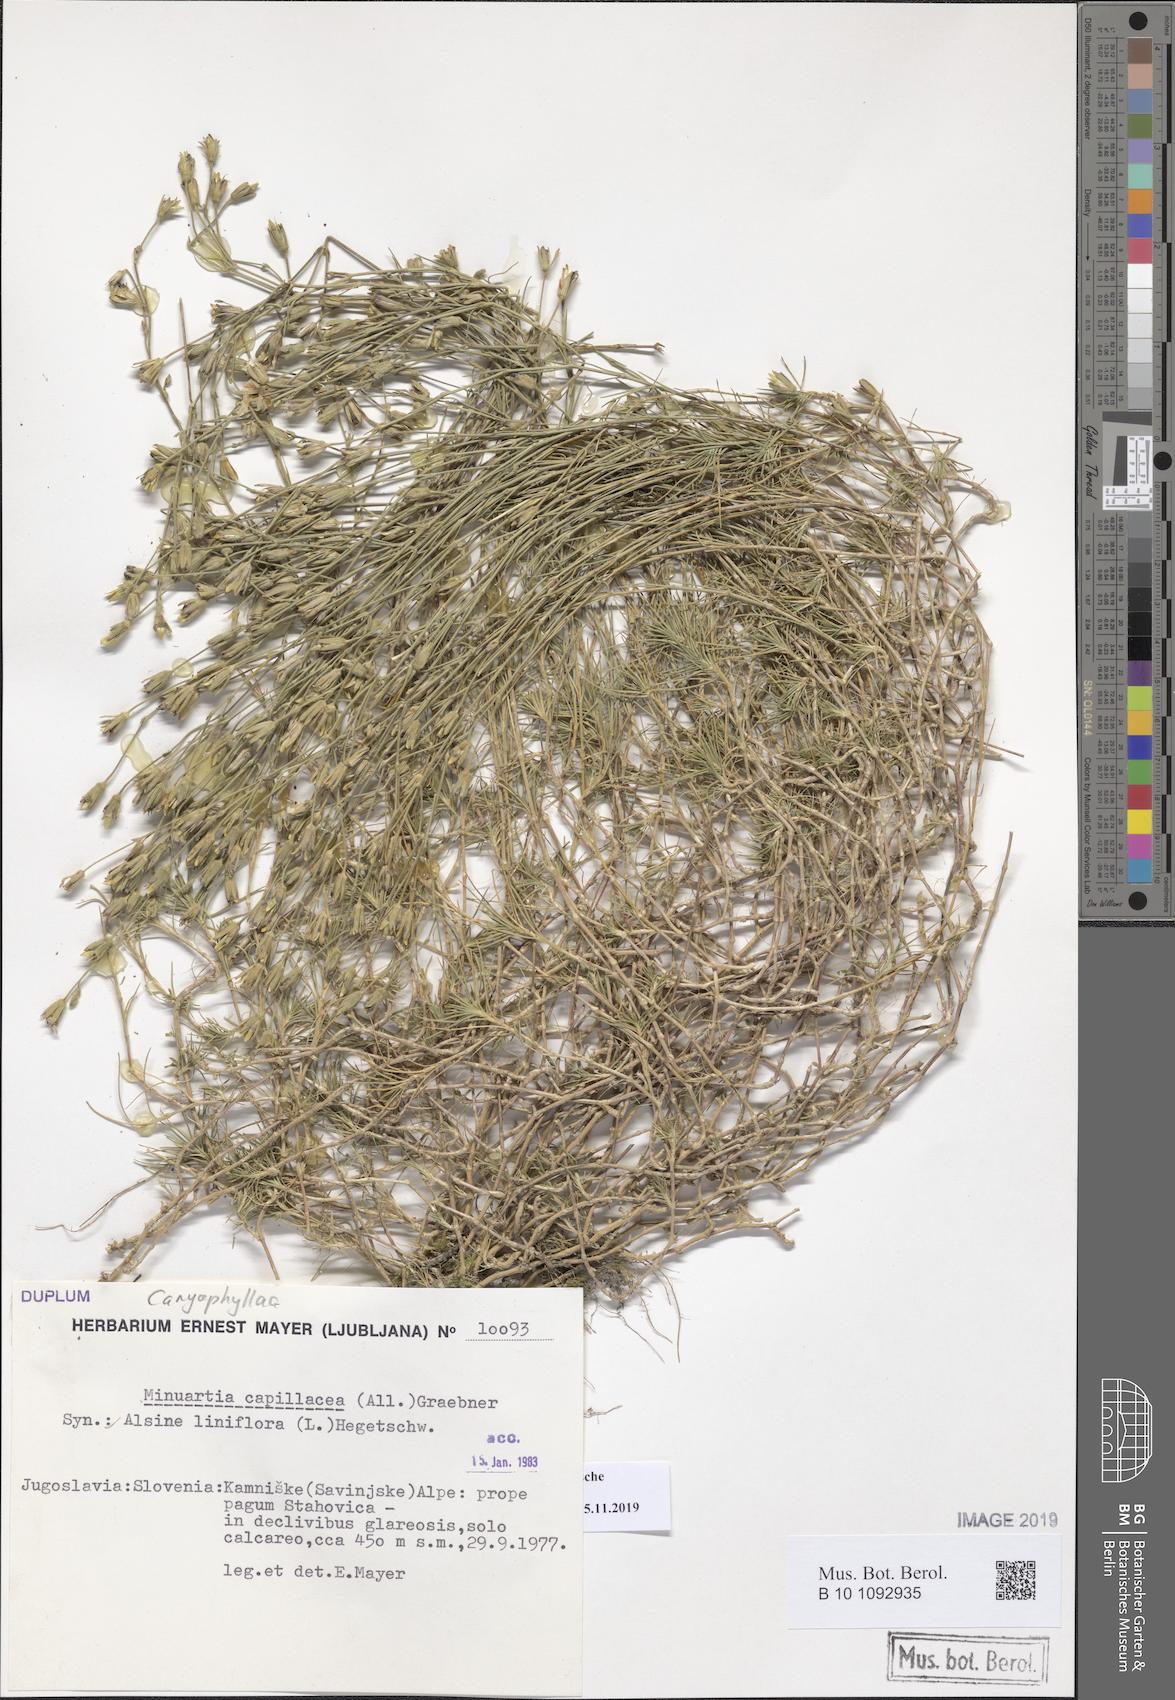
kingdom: Plantae
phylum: Tracheophyta
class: Magnoliopsida
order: Caryophyllales
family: Caryophyllaceae
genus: Cherleria
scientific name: Cherleria capillacea
